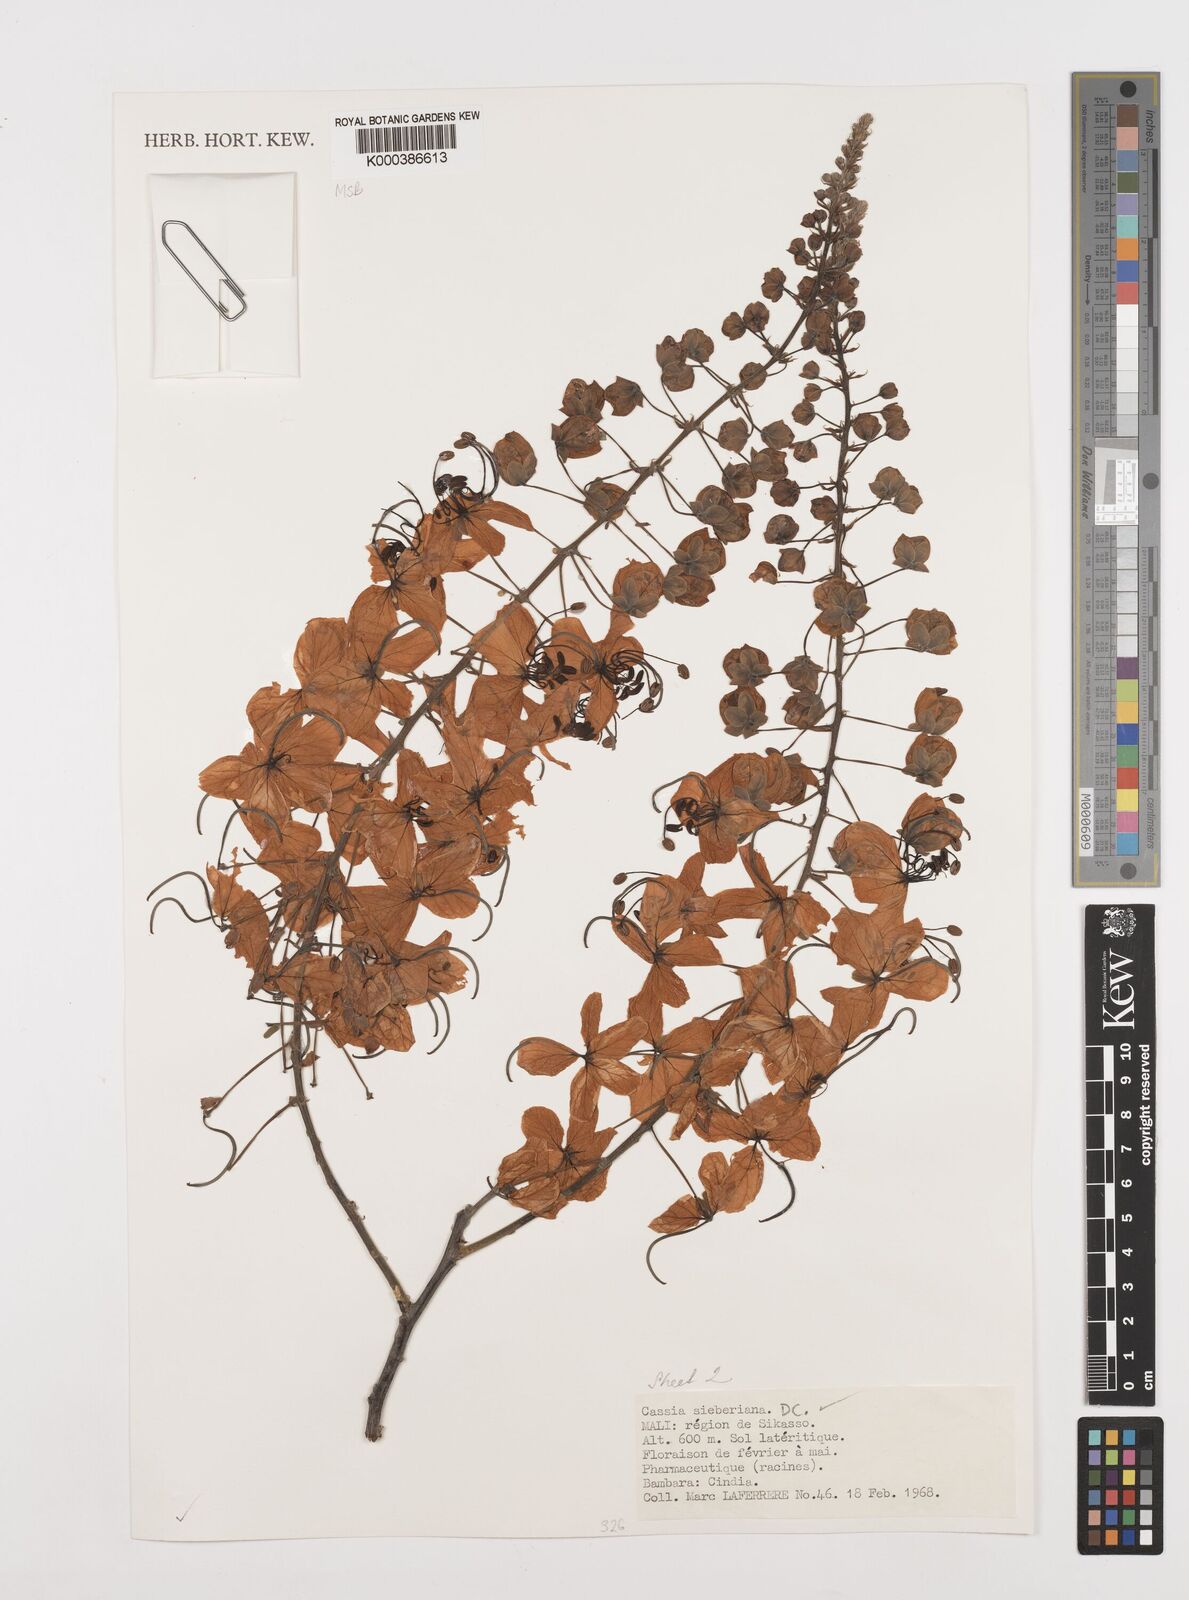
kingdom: Plantae
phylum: Tracheophyta
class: Magnoliopsida
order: Fabales
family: Fabaceae
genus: Cassia
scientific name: Cassia sieberiana
